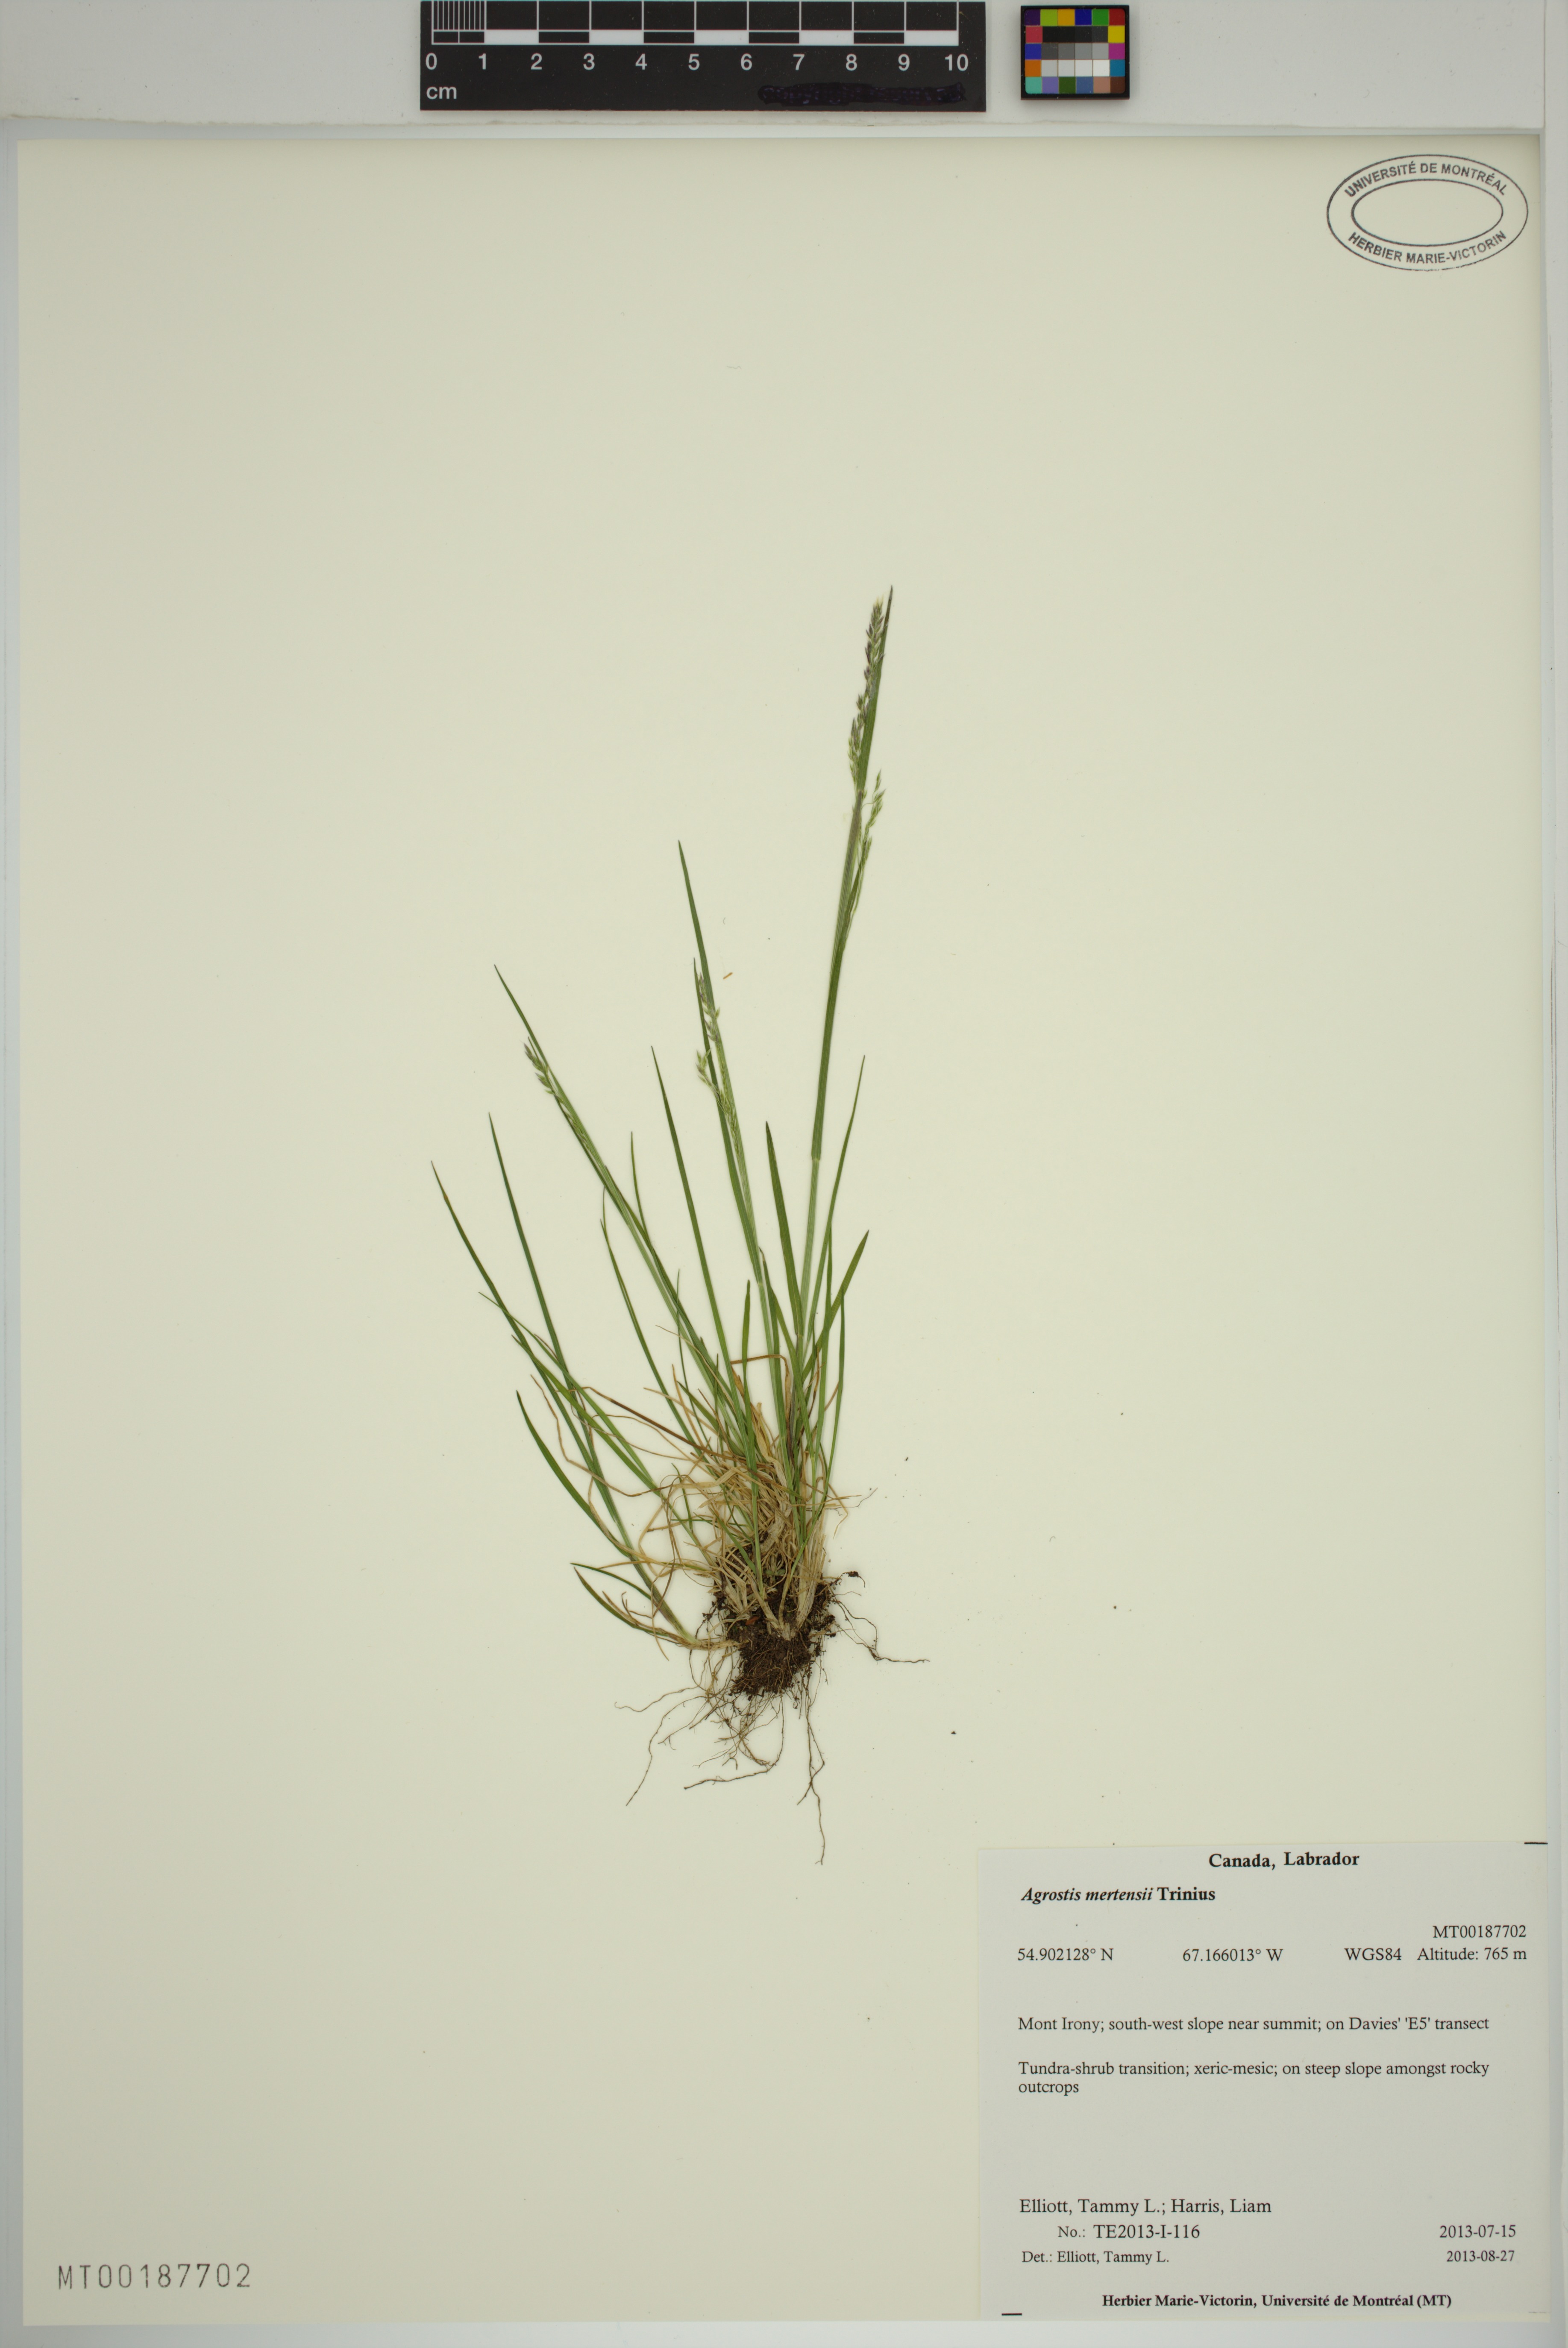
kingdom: Plantae
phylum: Tracheophyta
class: Liliopsida
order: Poales
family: Poaceae
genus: Agrostis
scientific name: Agrostis mertensii
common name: Northern bent
